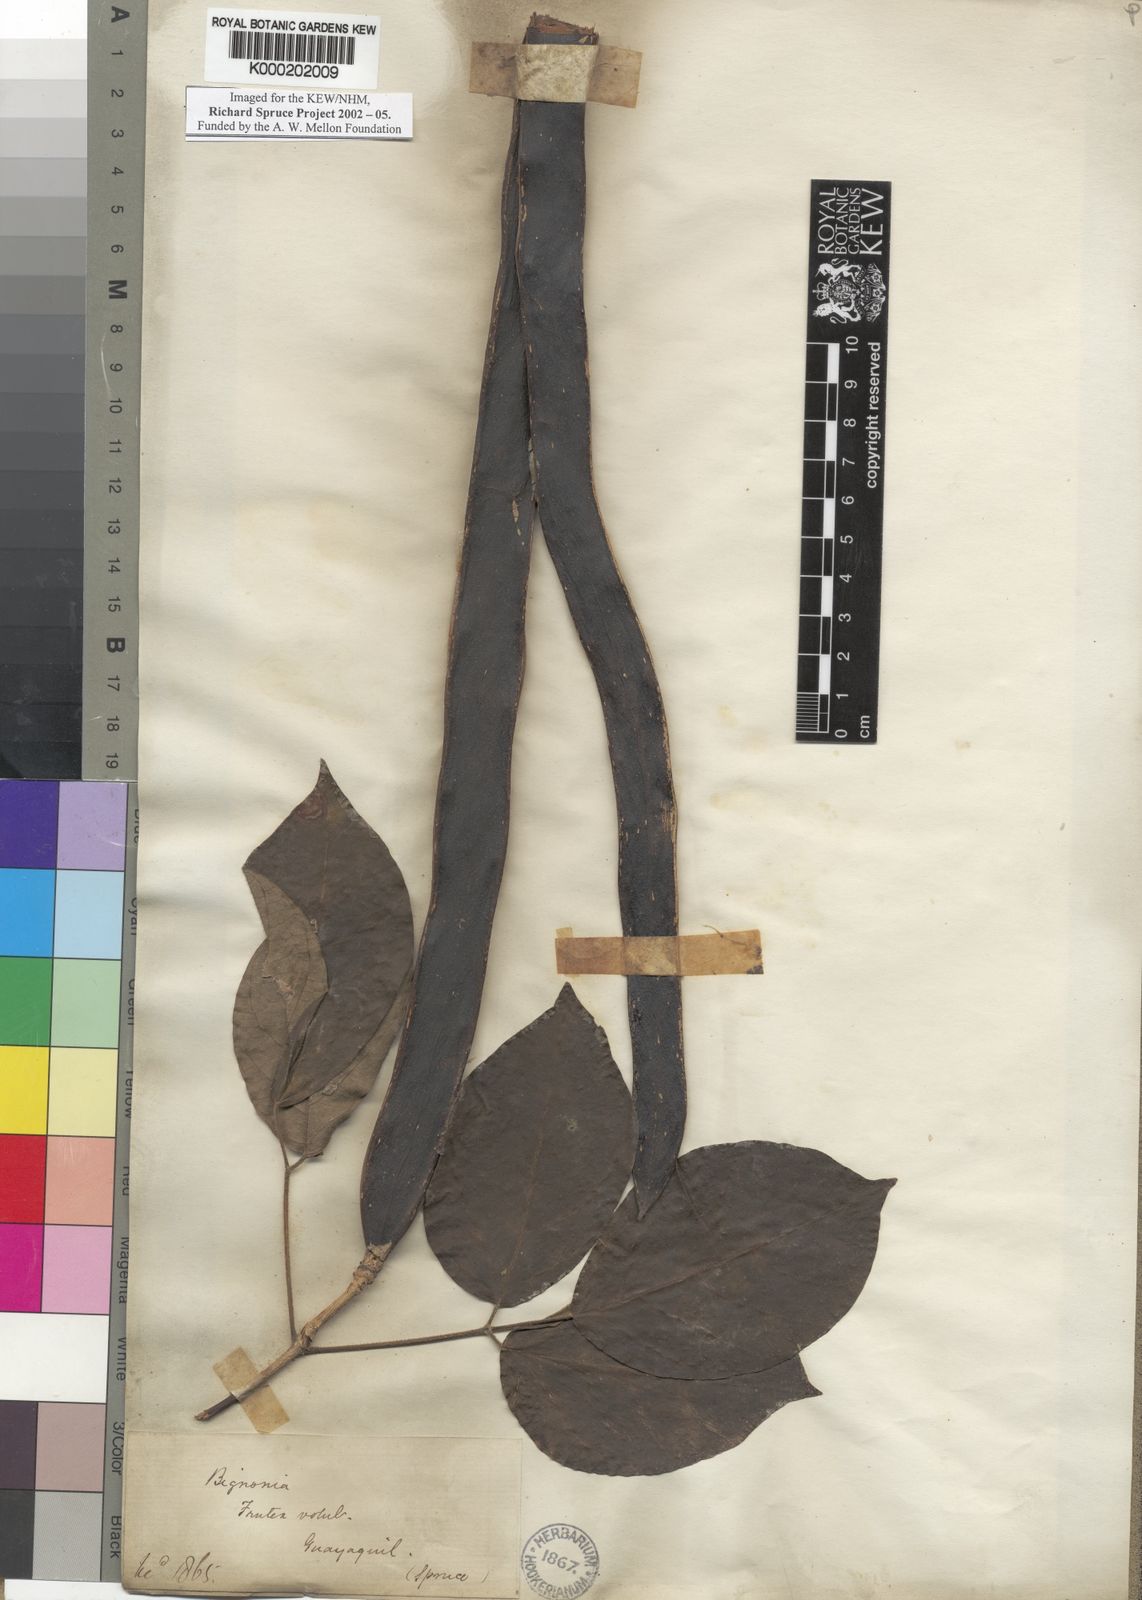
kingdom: Plantae
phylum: Tracheophyta
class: Magnoliopsida
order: Lamiales
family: Bignoniaceae
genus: Bignonia
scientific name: Bignonia
